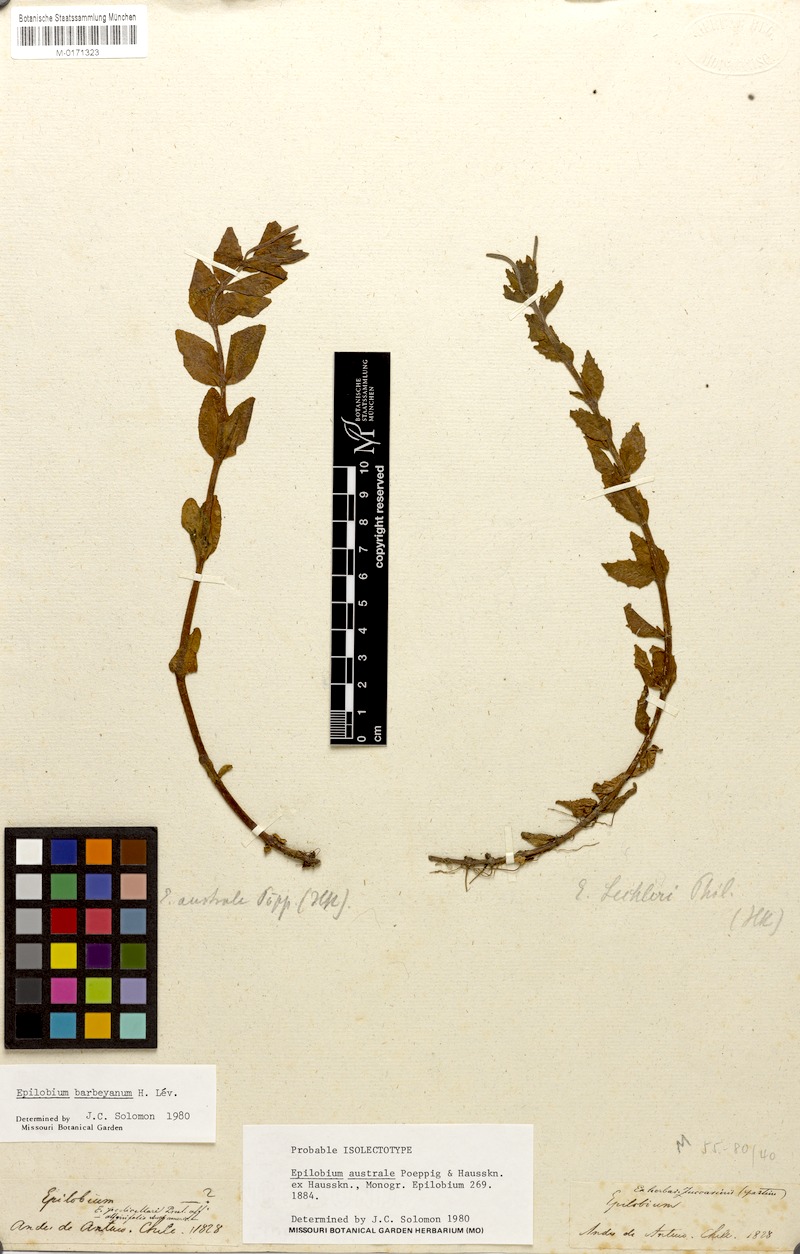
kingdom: Plantae
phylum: Tracheophyta
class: Magnoliopsida
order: Myrtales
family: Onagraceae
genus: Epilobium
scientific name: Epilobium barbeyanum
